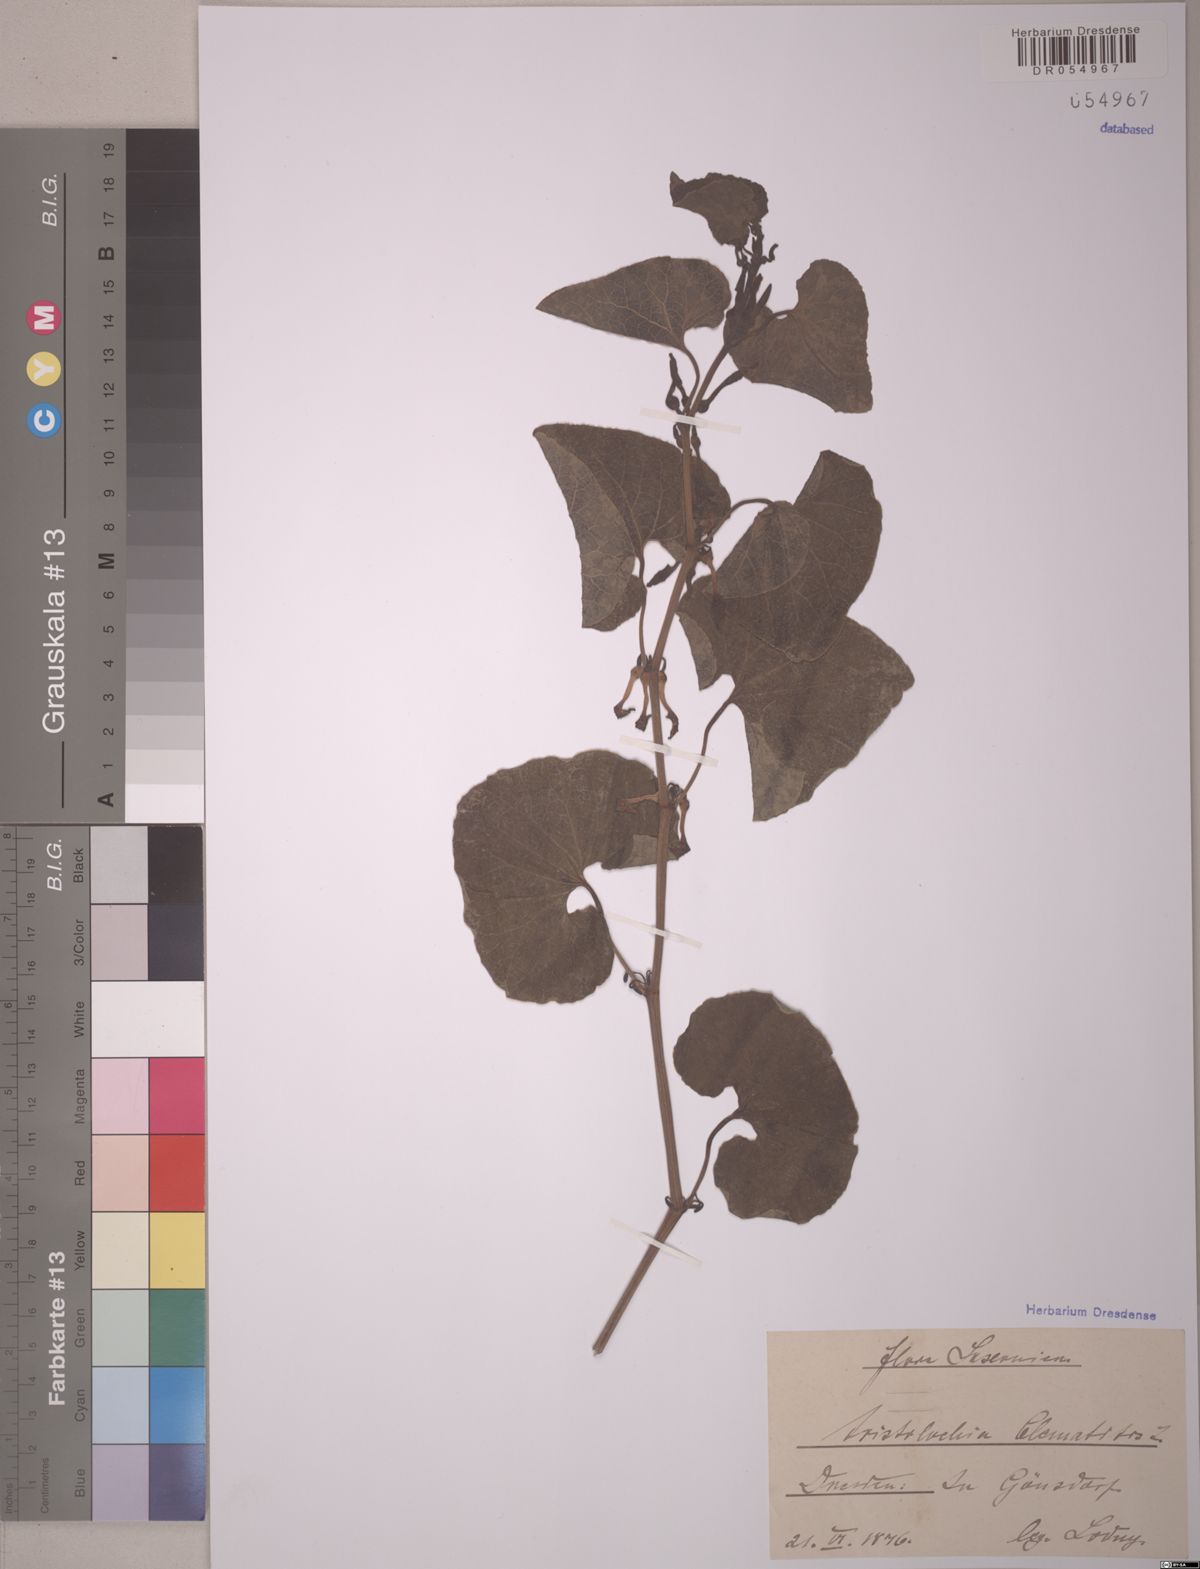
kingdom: Plantae
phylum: Tracheophyta
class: Magnoliopsida
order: Piperales
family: Aristolochiaceae
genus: Aristolochia
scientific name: Aristolochia clematitis
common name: Birthwort
